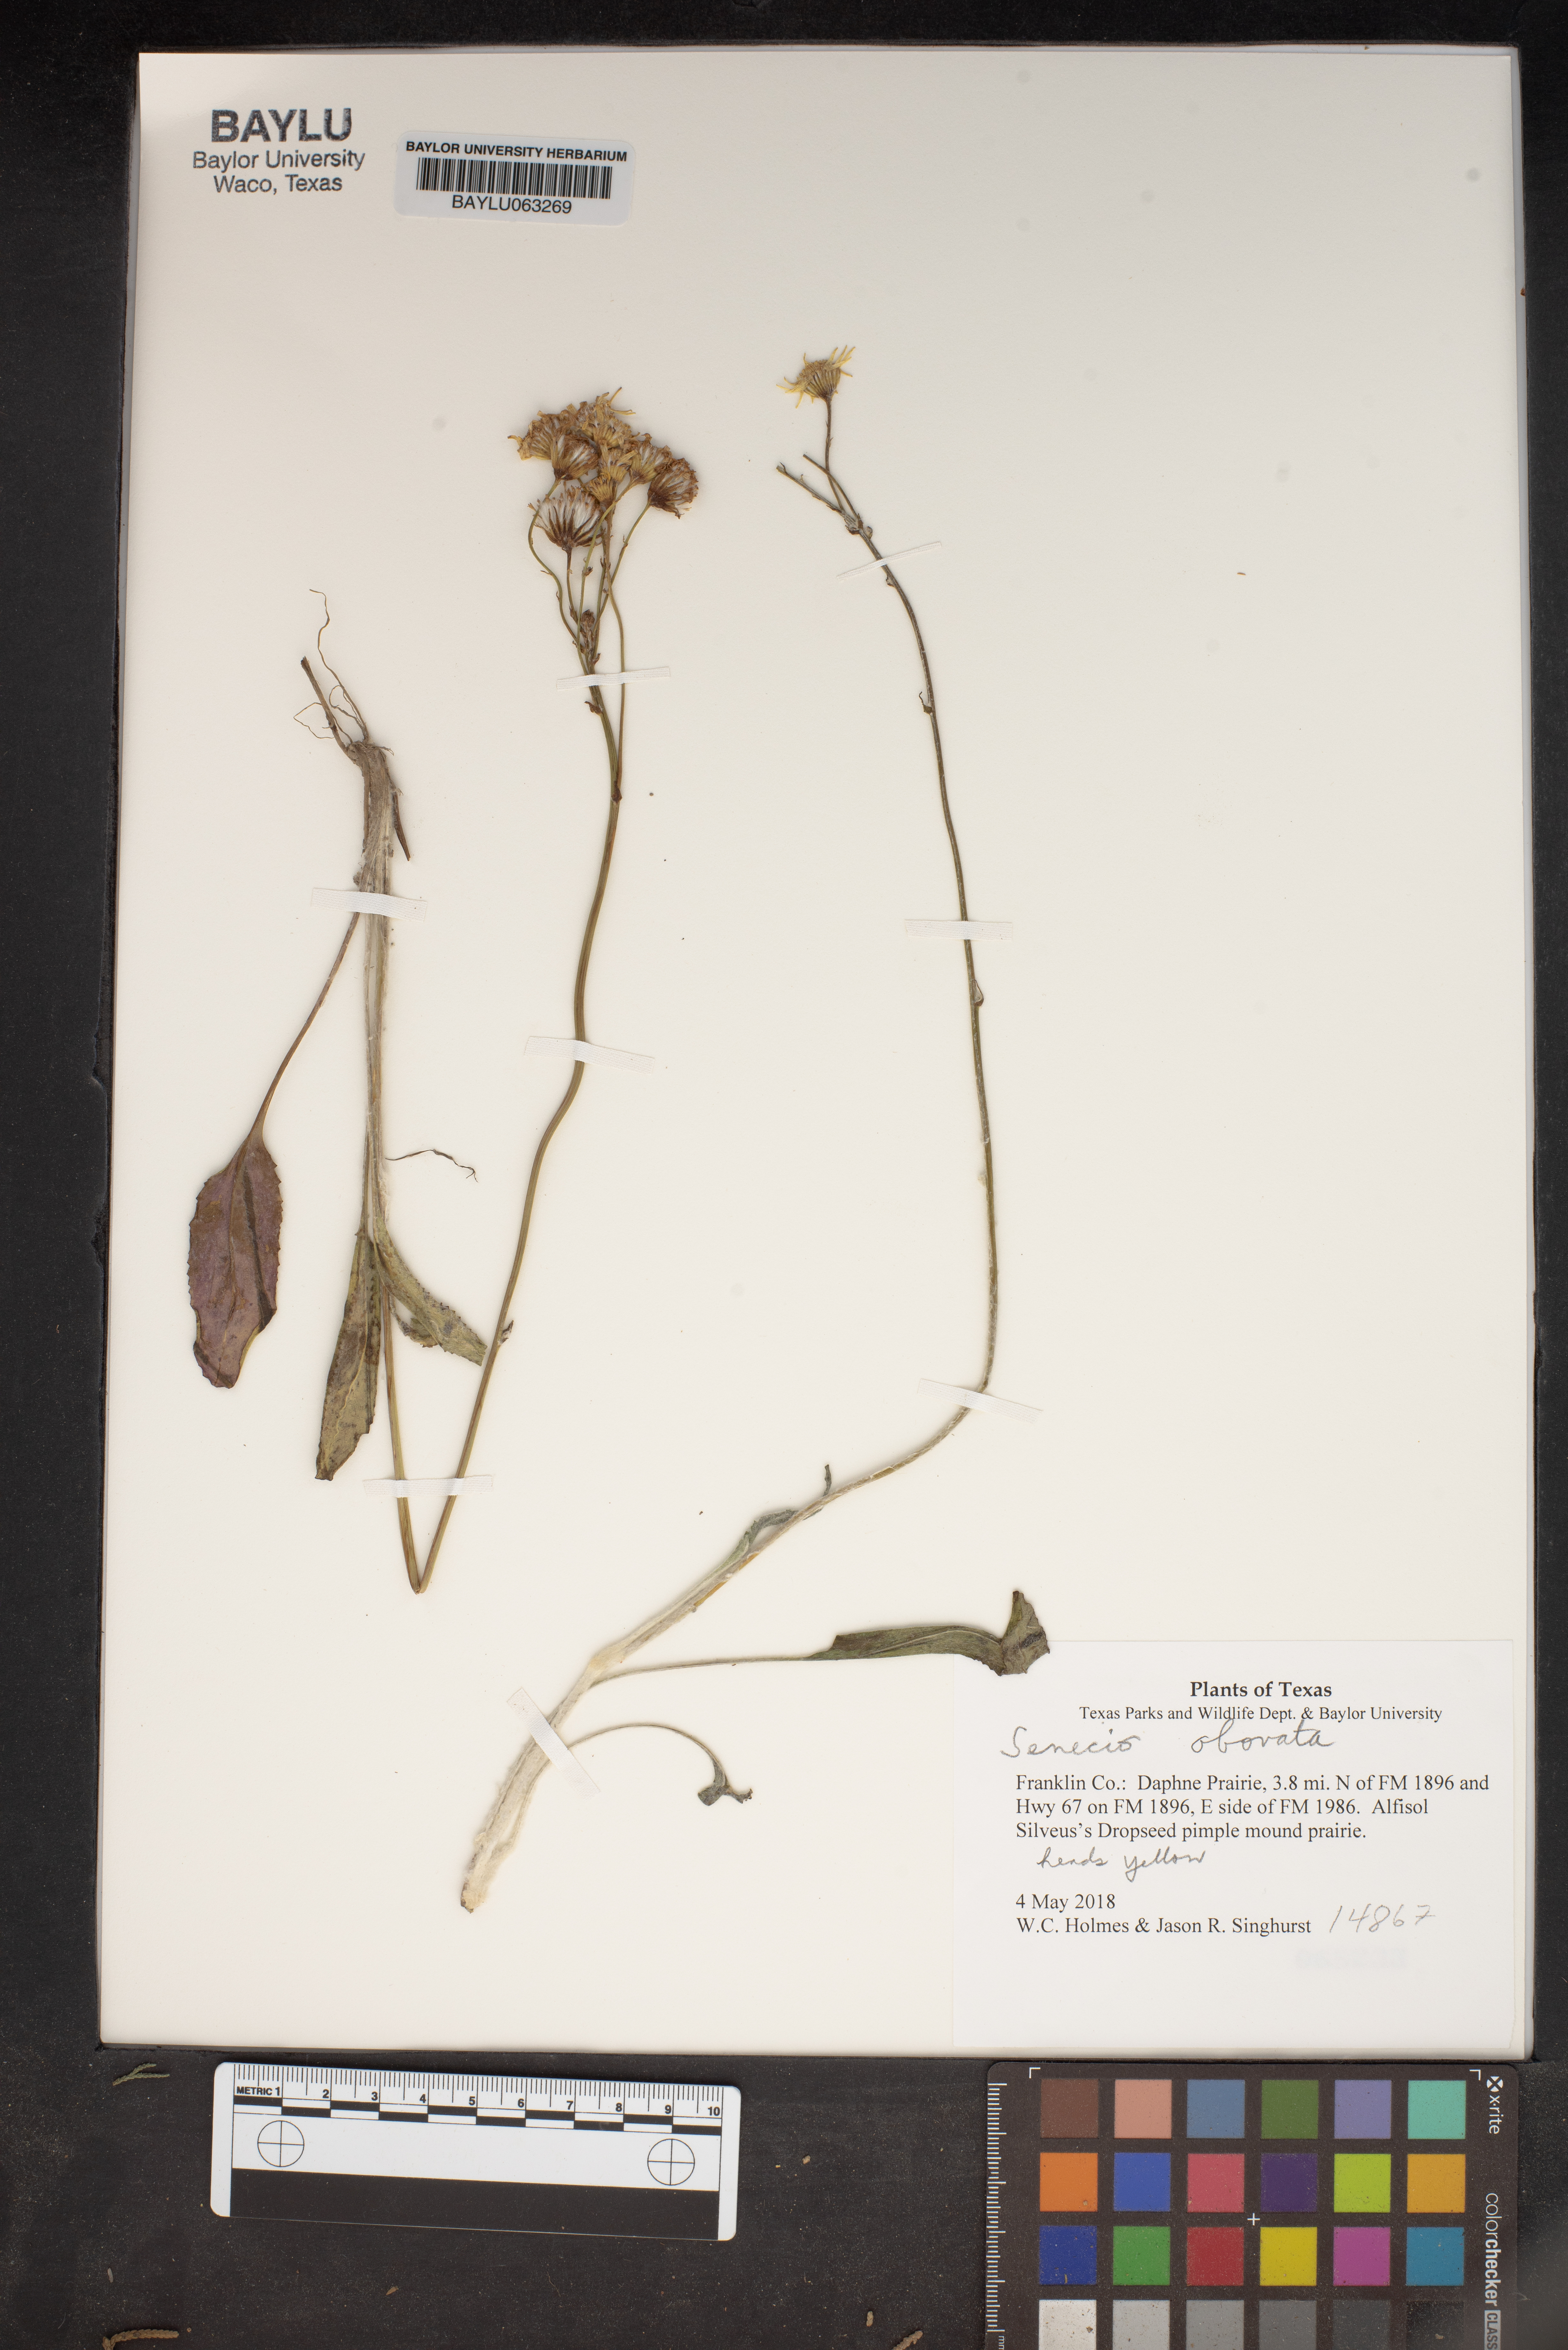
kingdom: Plantae
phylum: Tracheophyta
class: Magnoliopsida
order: Asterales
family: Asteraceae
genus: Senecio
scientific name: Senecio provincialis
